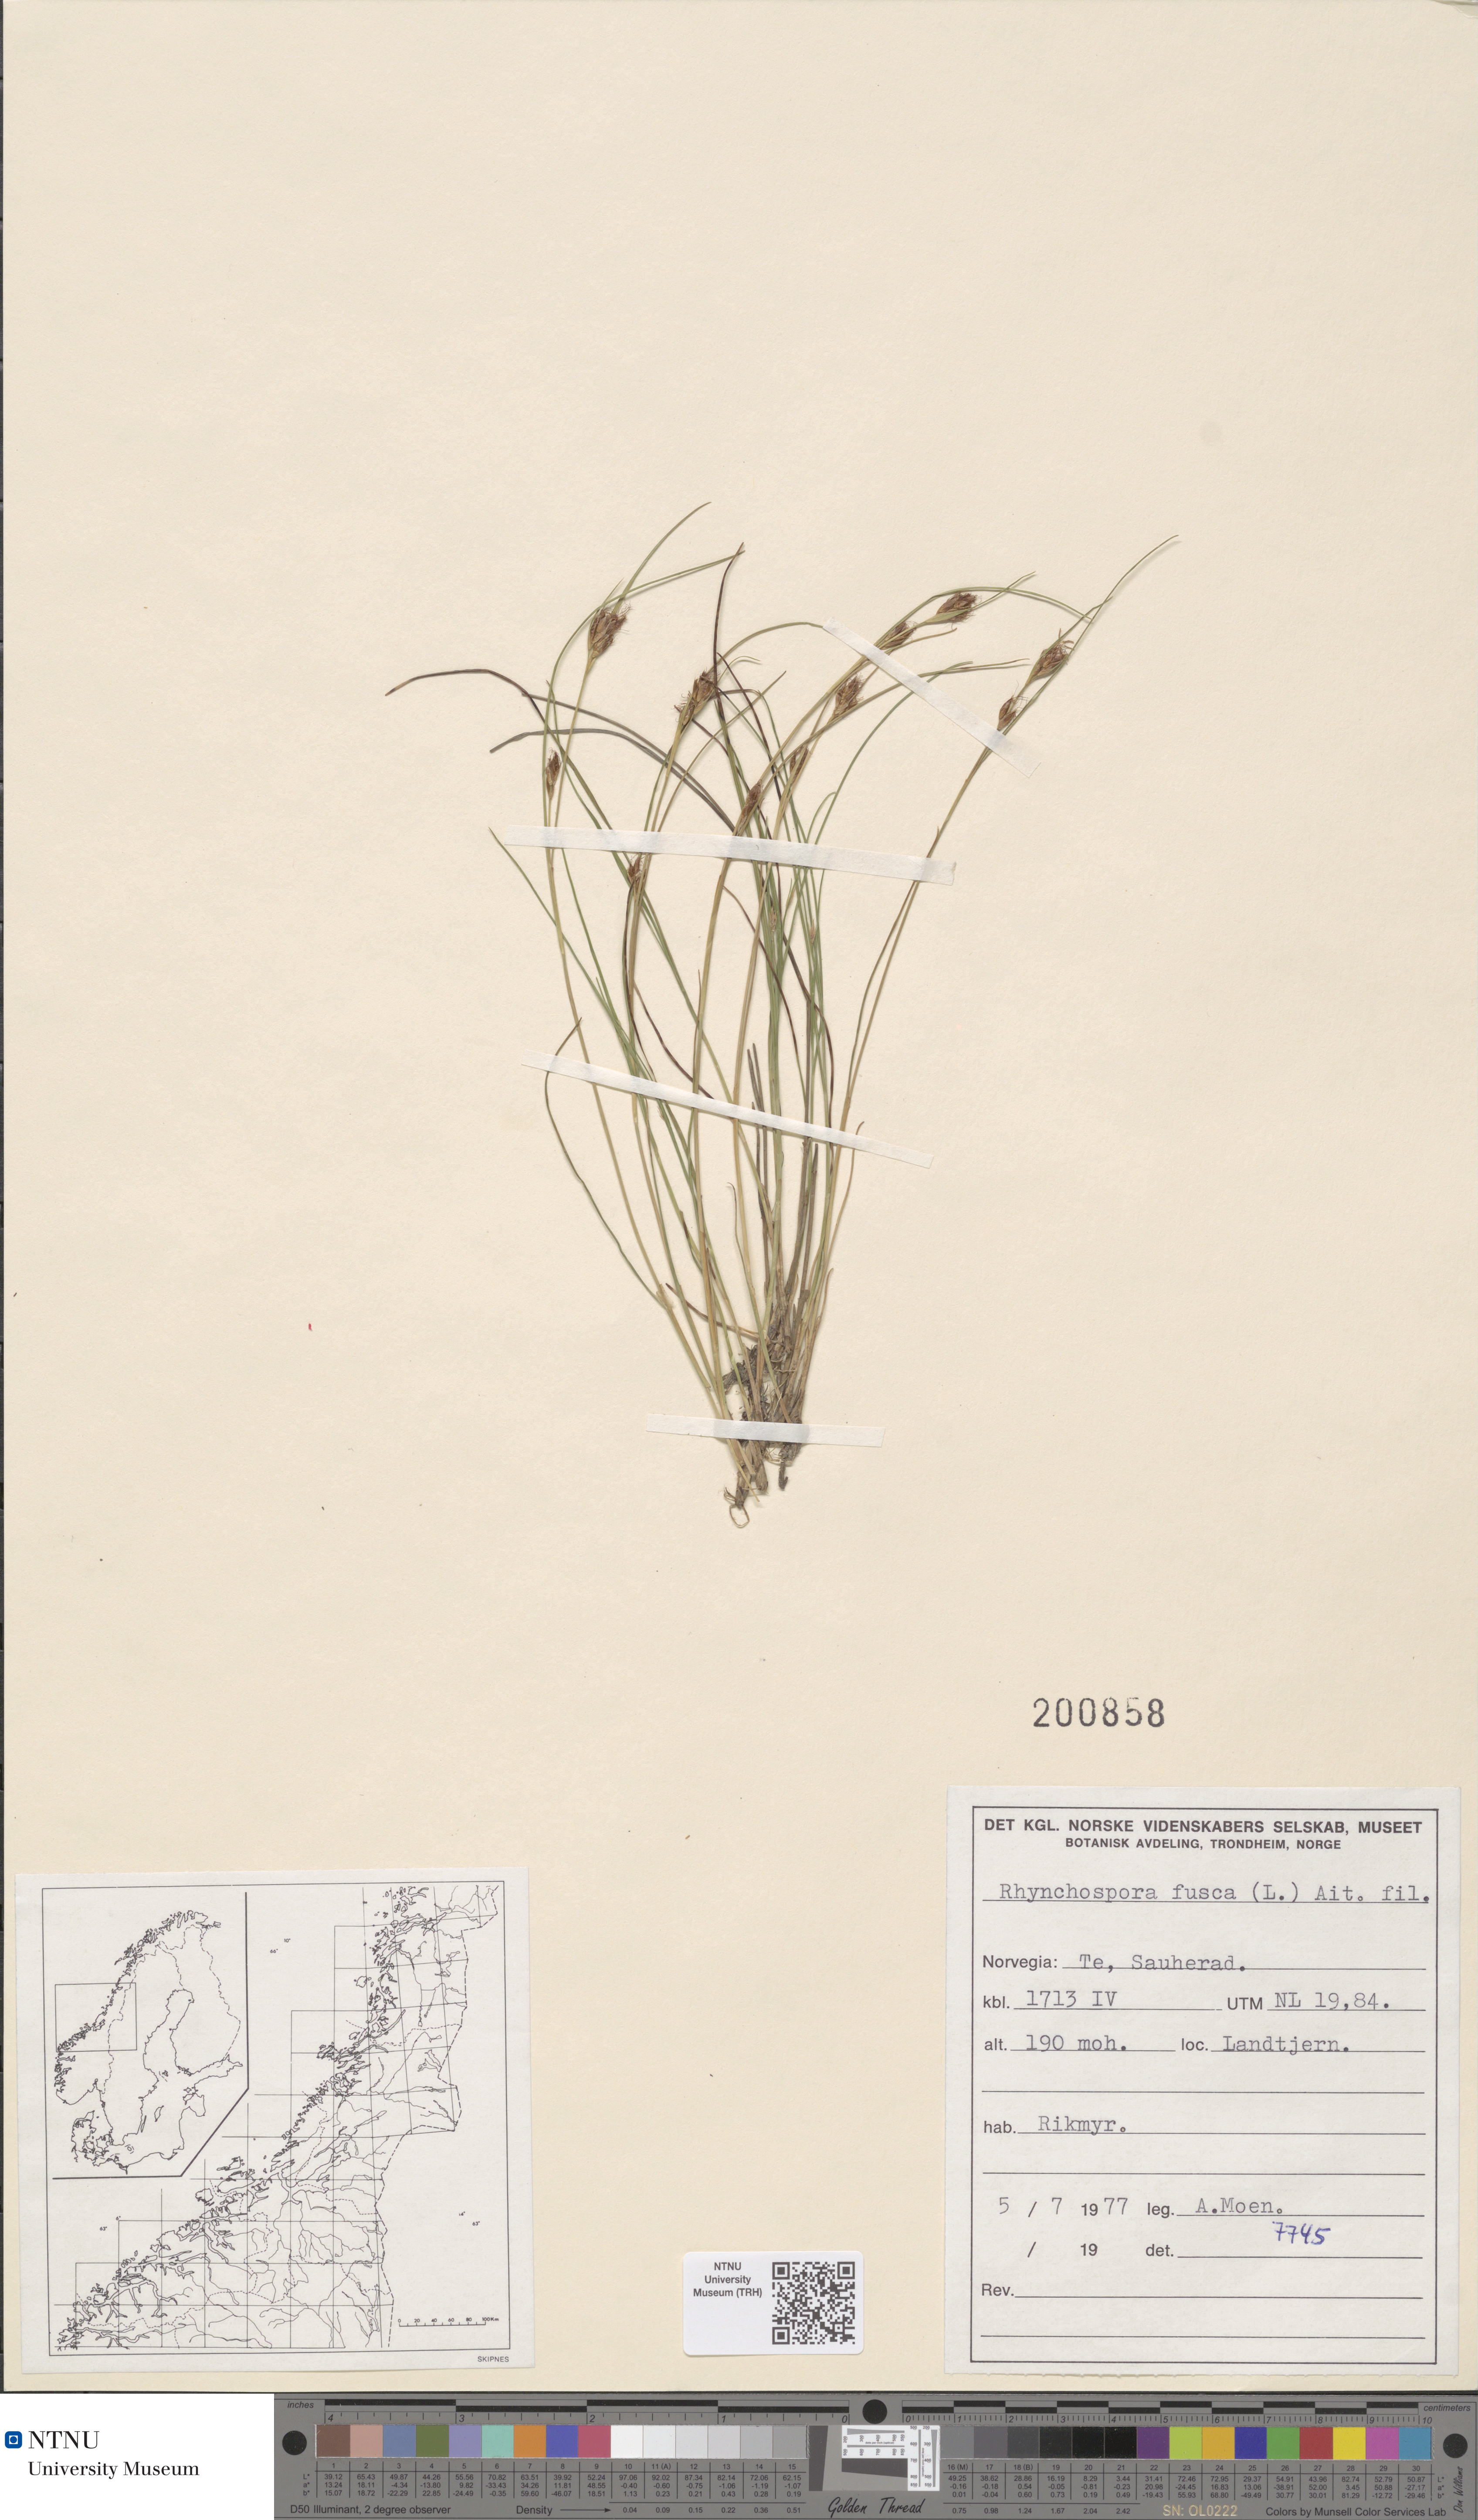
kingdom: Plantae
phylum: Tracheophyta
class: Liliopsida
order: Poales
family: Cyperaceae
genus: Rhynchospora
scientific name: Rhynchospora fusca
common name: Brown beak-sedge
